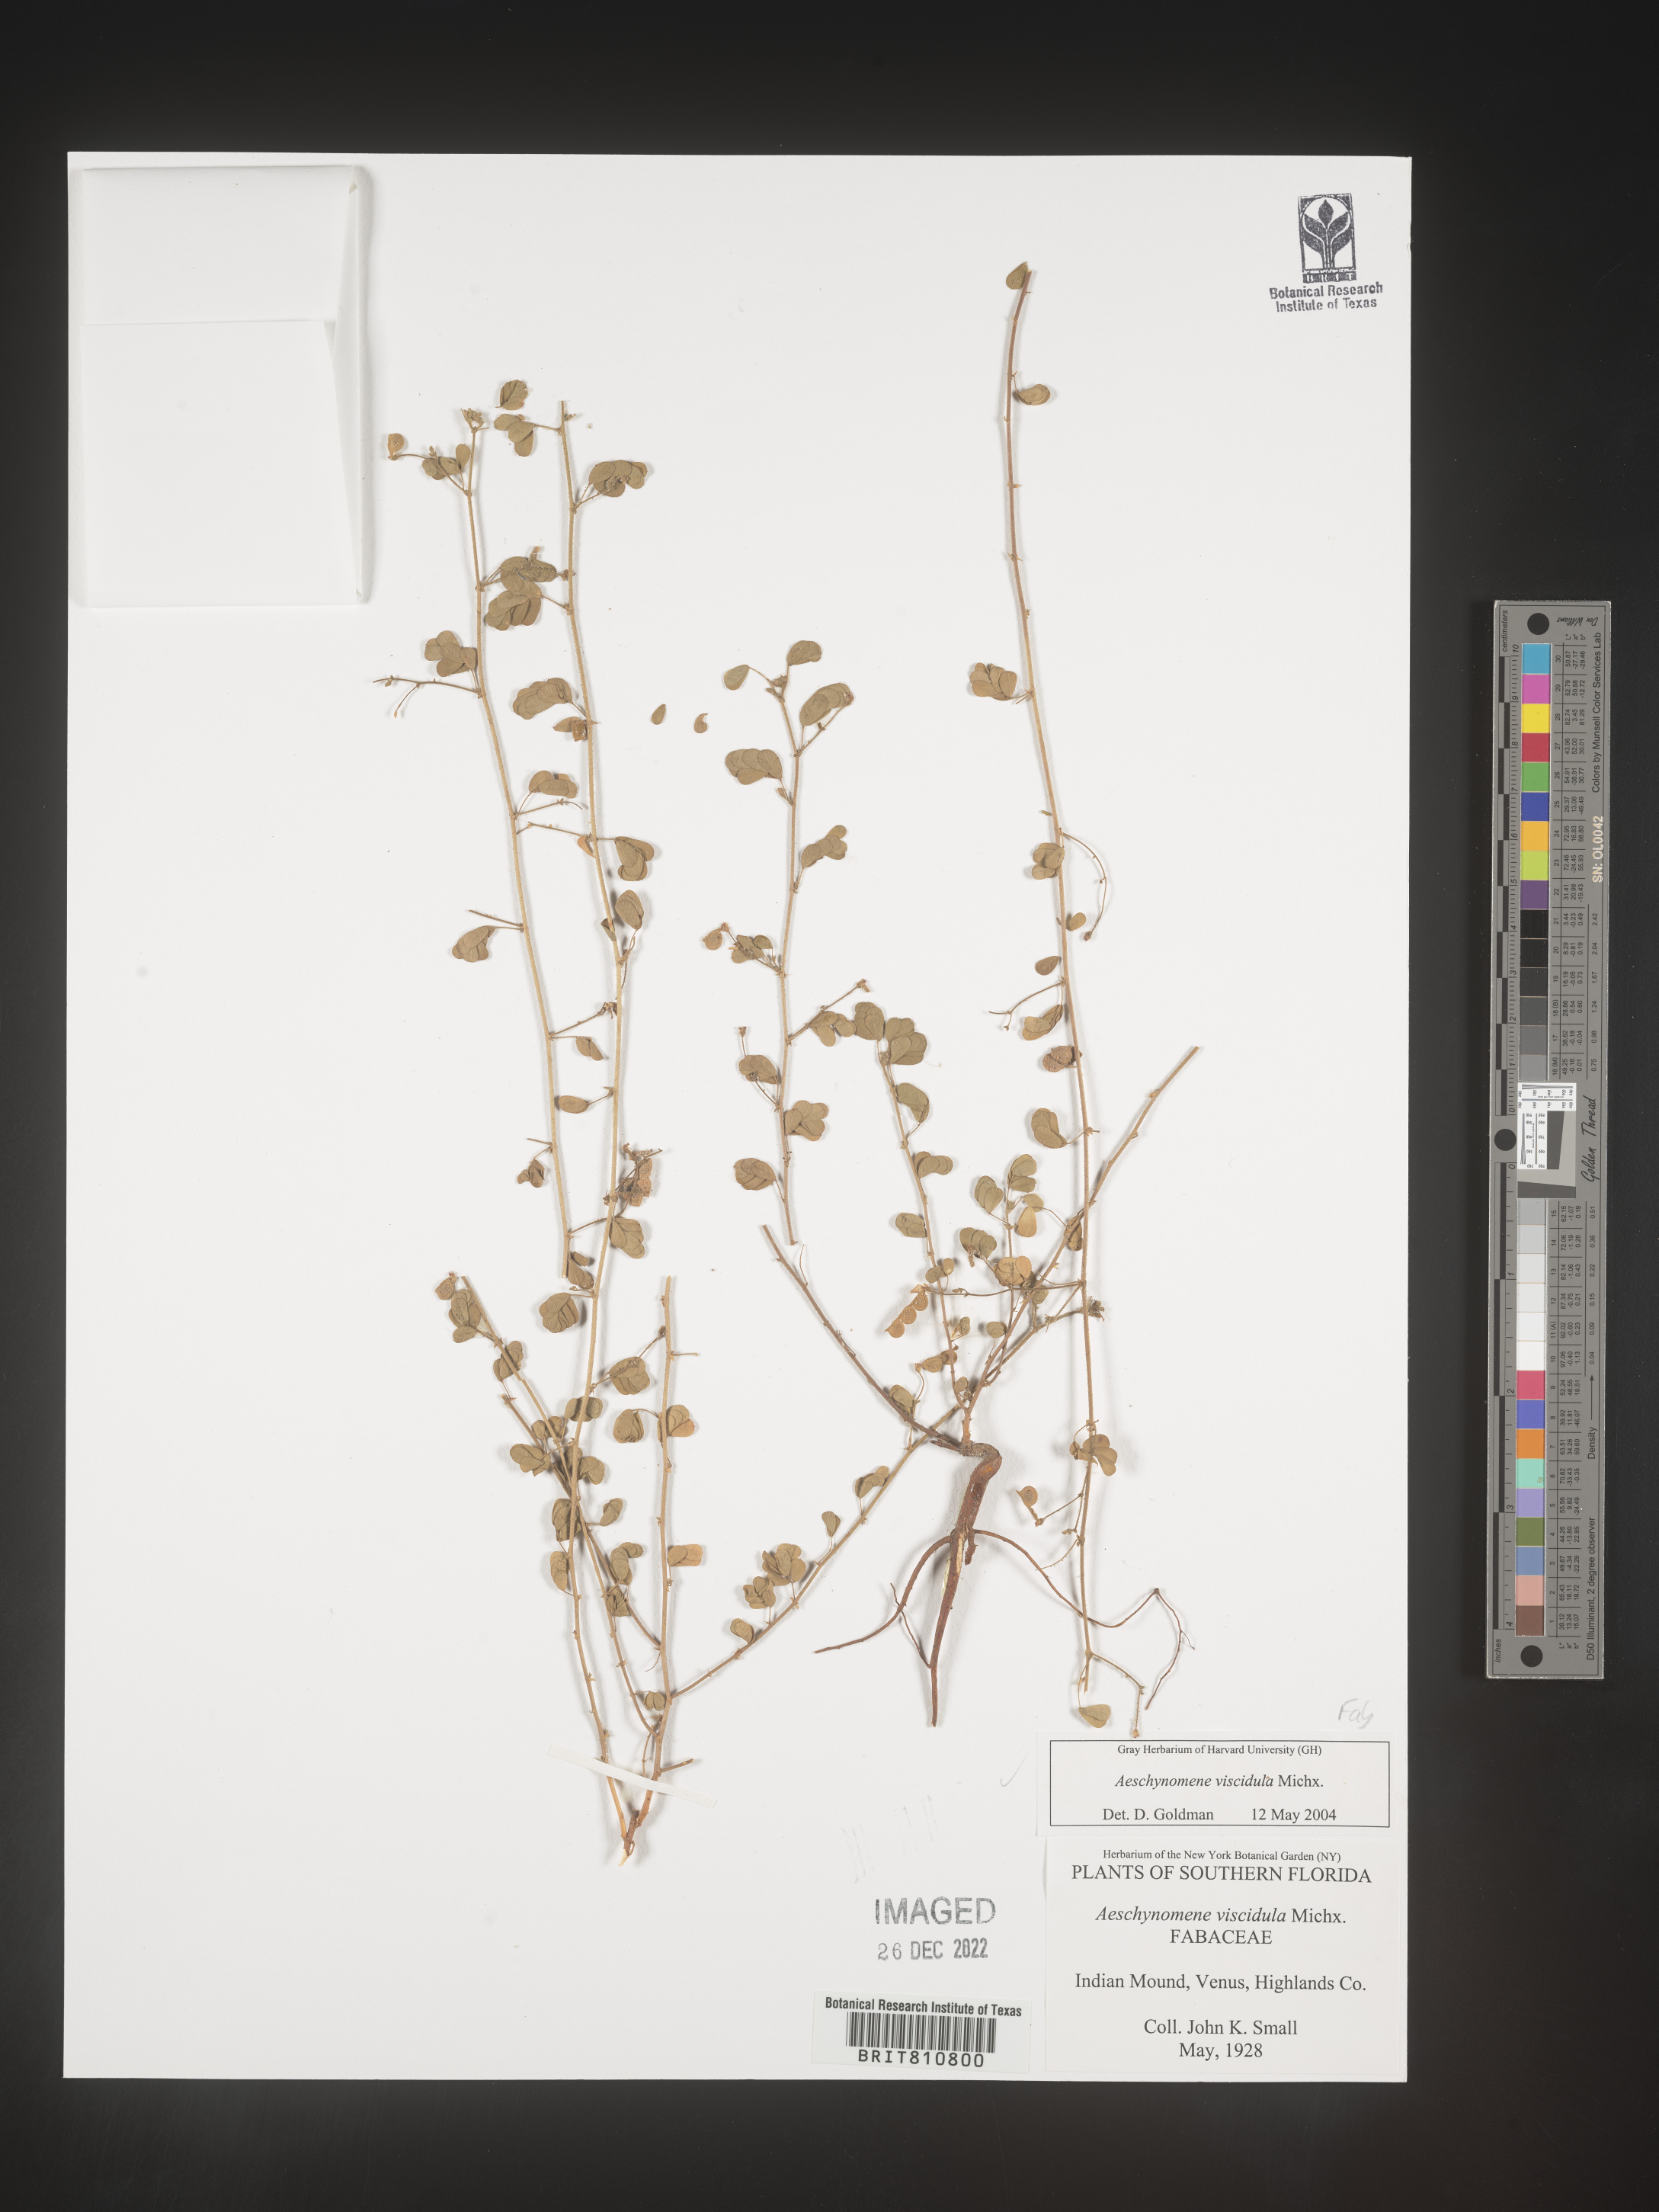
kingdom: Plantae
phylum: Tracheophyta
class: Magnoliopsida
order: Fabales
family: Fabaceae
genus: Aeschynomene
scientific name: Aeschynomene indica
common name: Indian jointvetch
